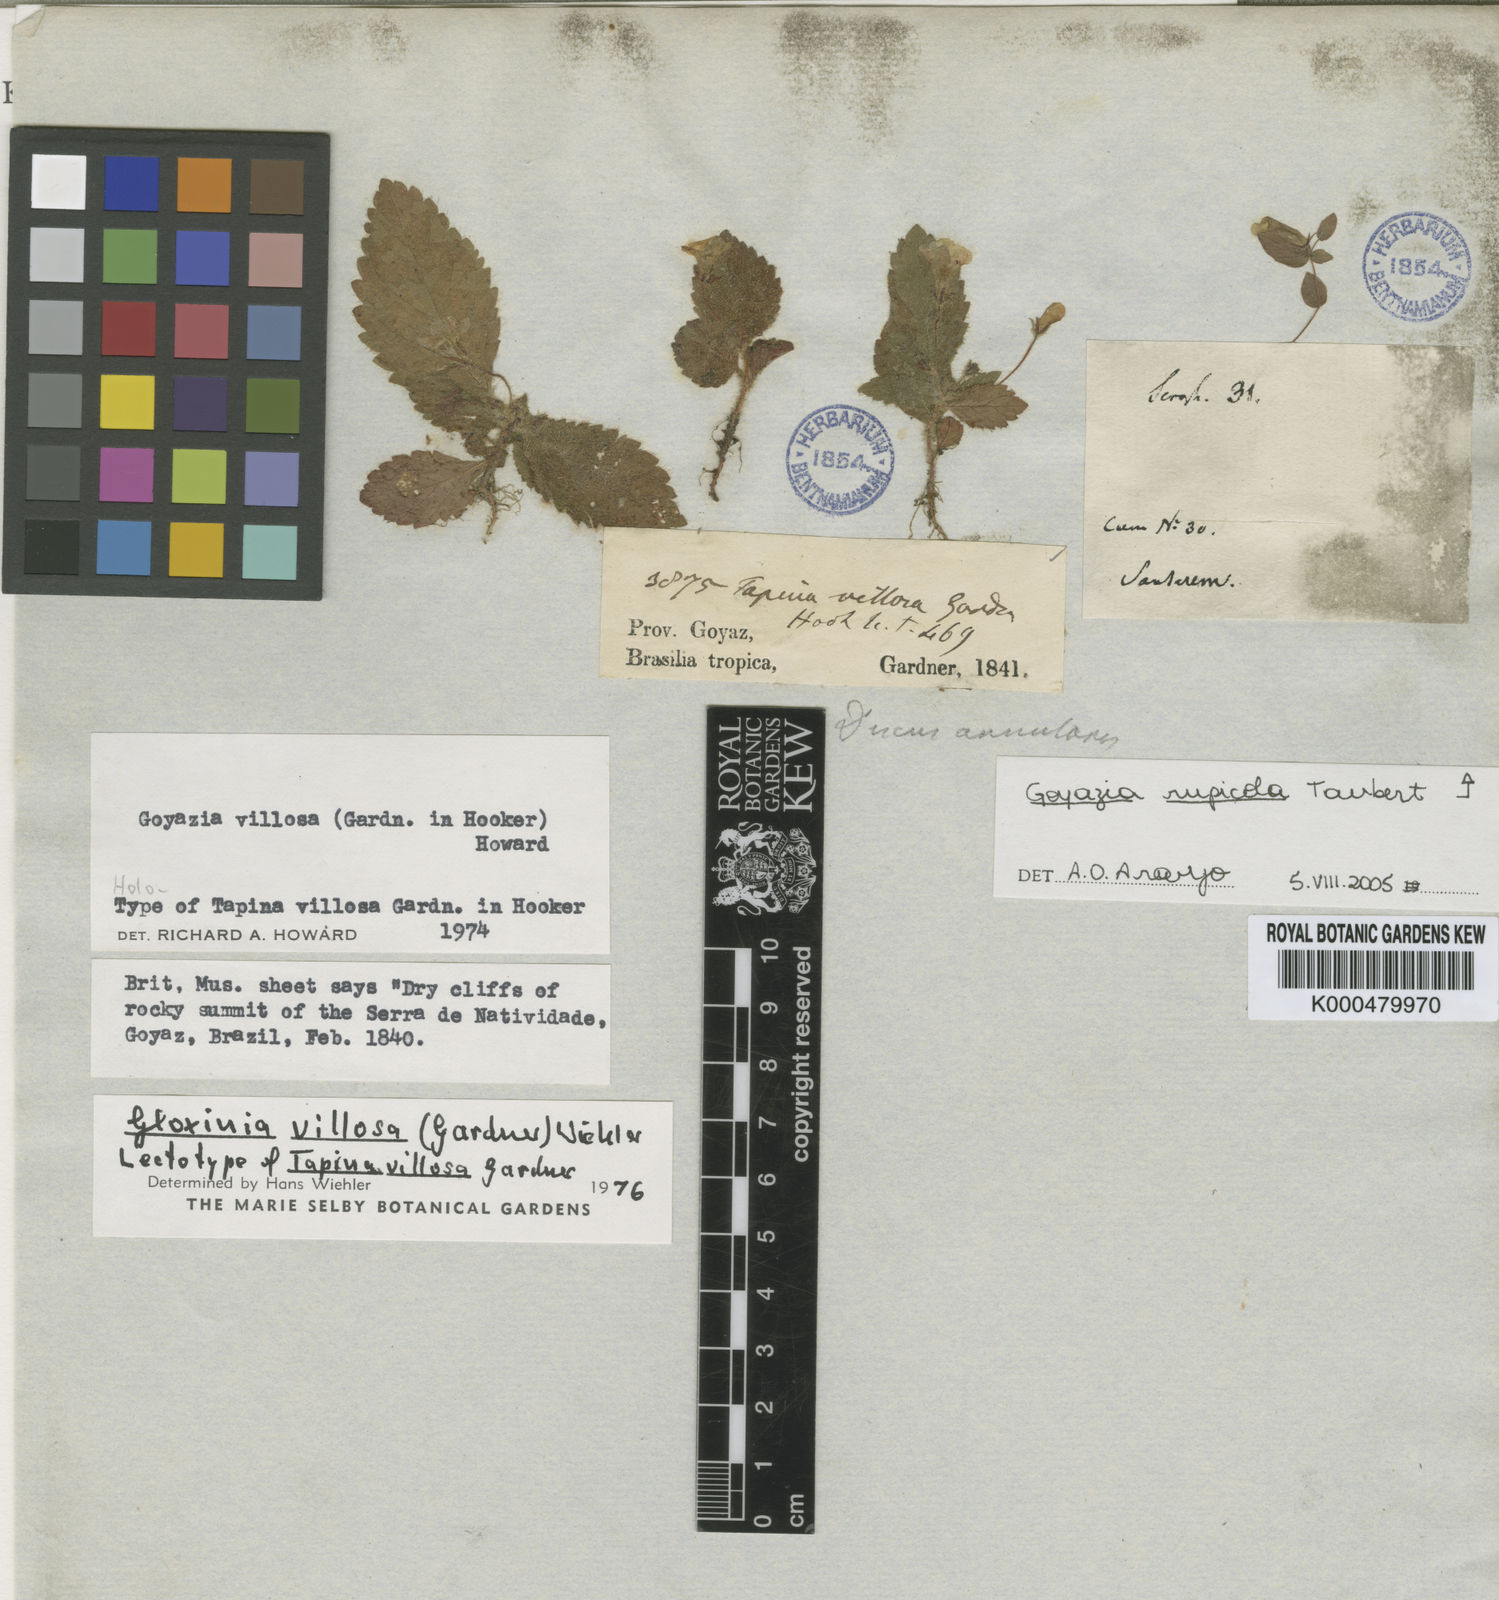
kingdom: Plantae
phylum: Tracheophyta
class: Magnoliopsida
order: Lamiales
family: Gesneriaceae
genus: Goyazia
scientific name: Goyazia villosa
